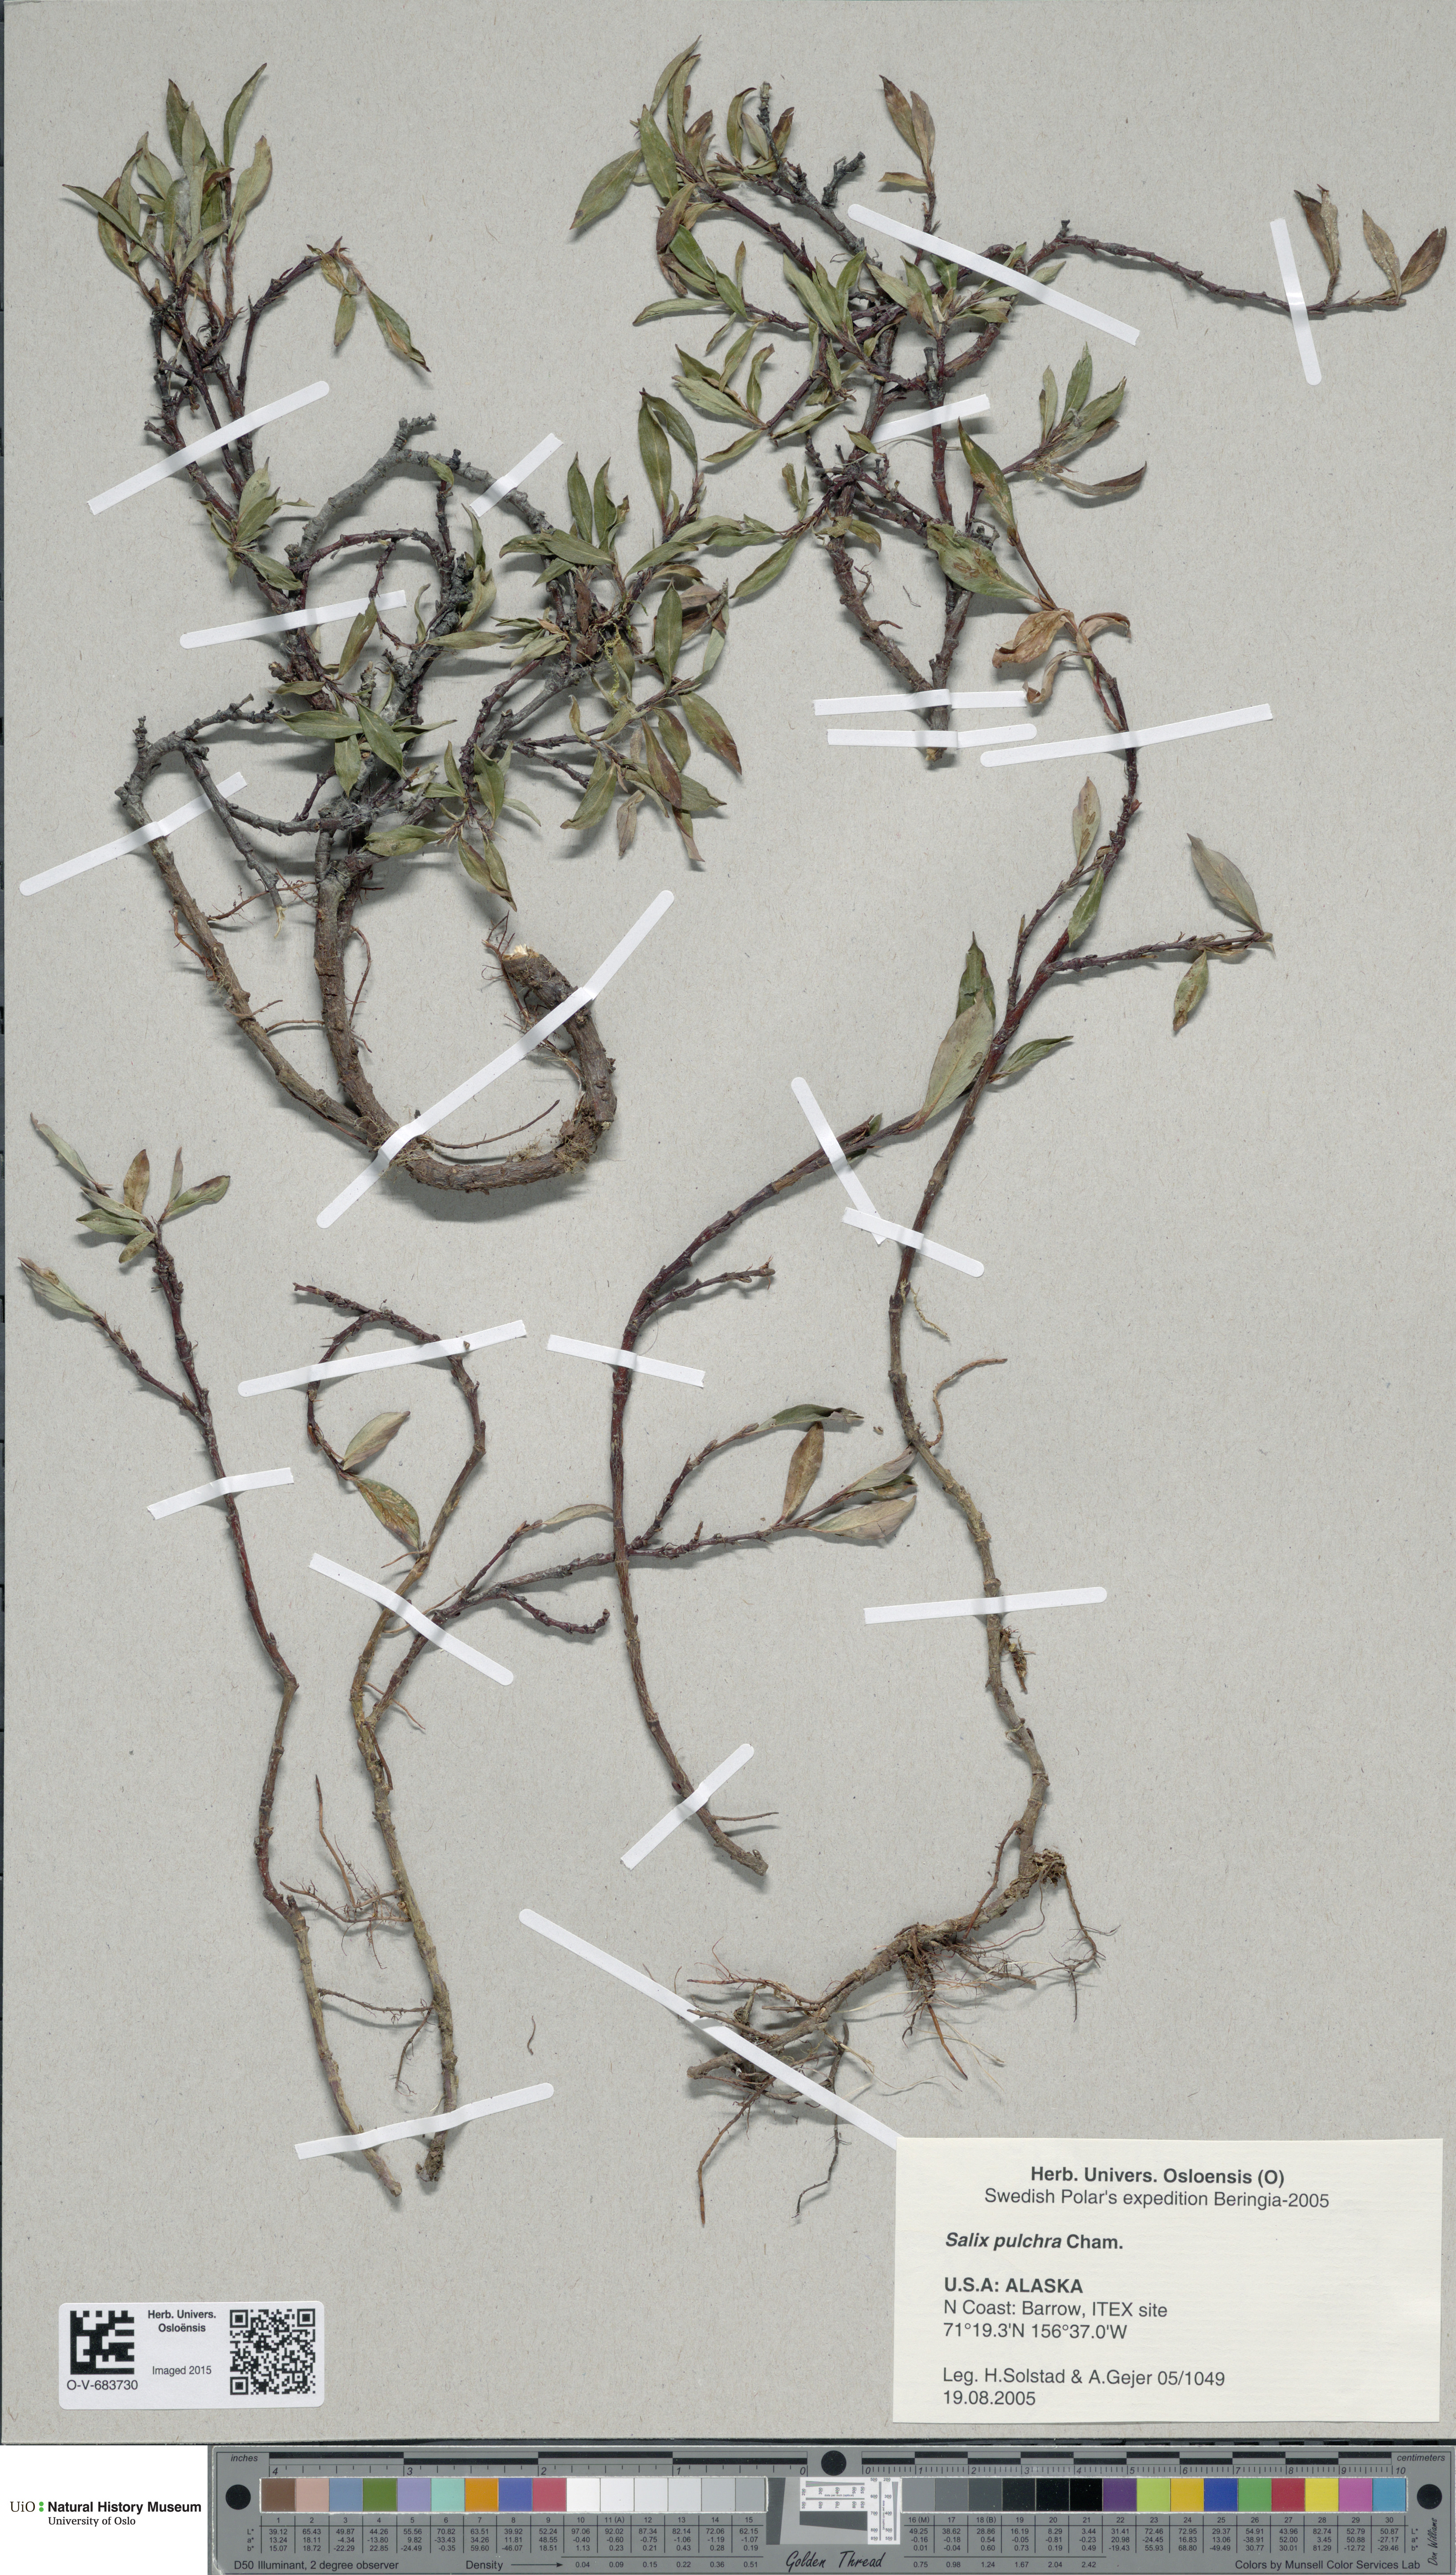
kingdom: Plantae
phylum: Tracheophyta
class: Magnoliopsida
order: Malpighiales
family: Salicaceae
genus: Salix
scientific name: Salix pulchra
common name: Diamond-leaved willow
